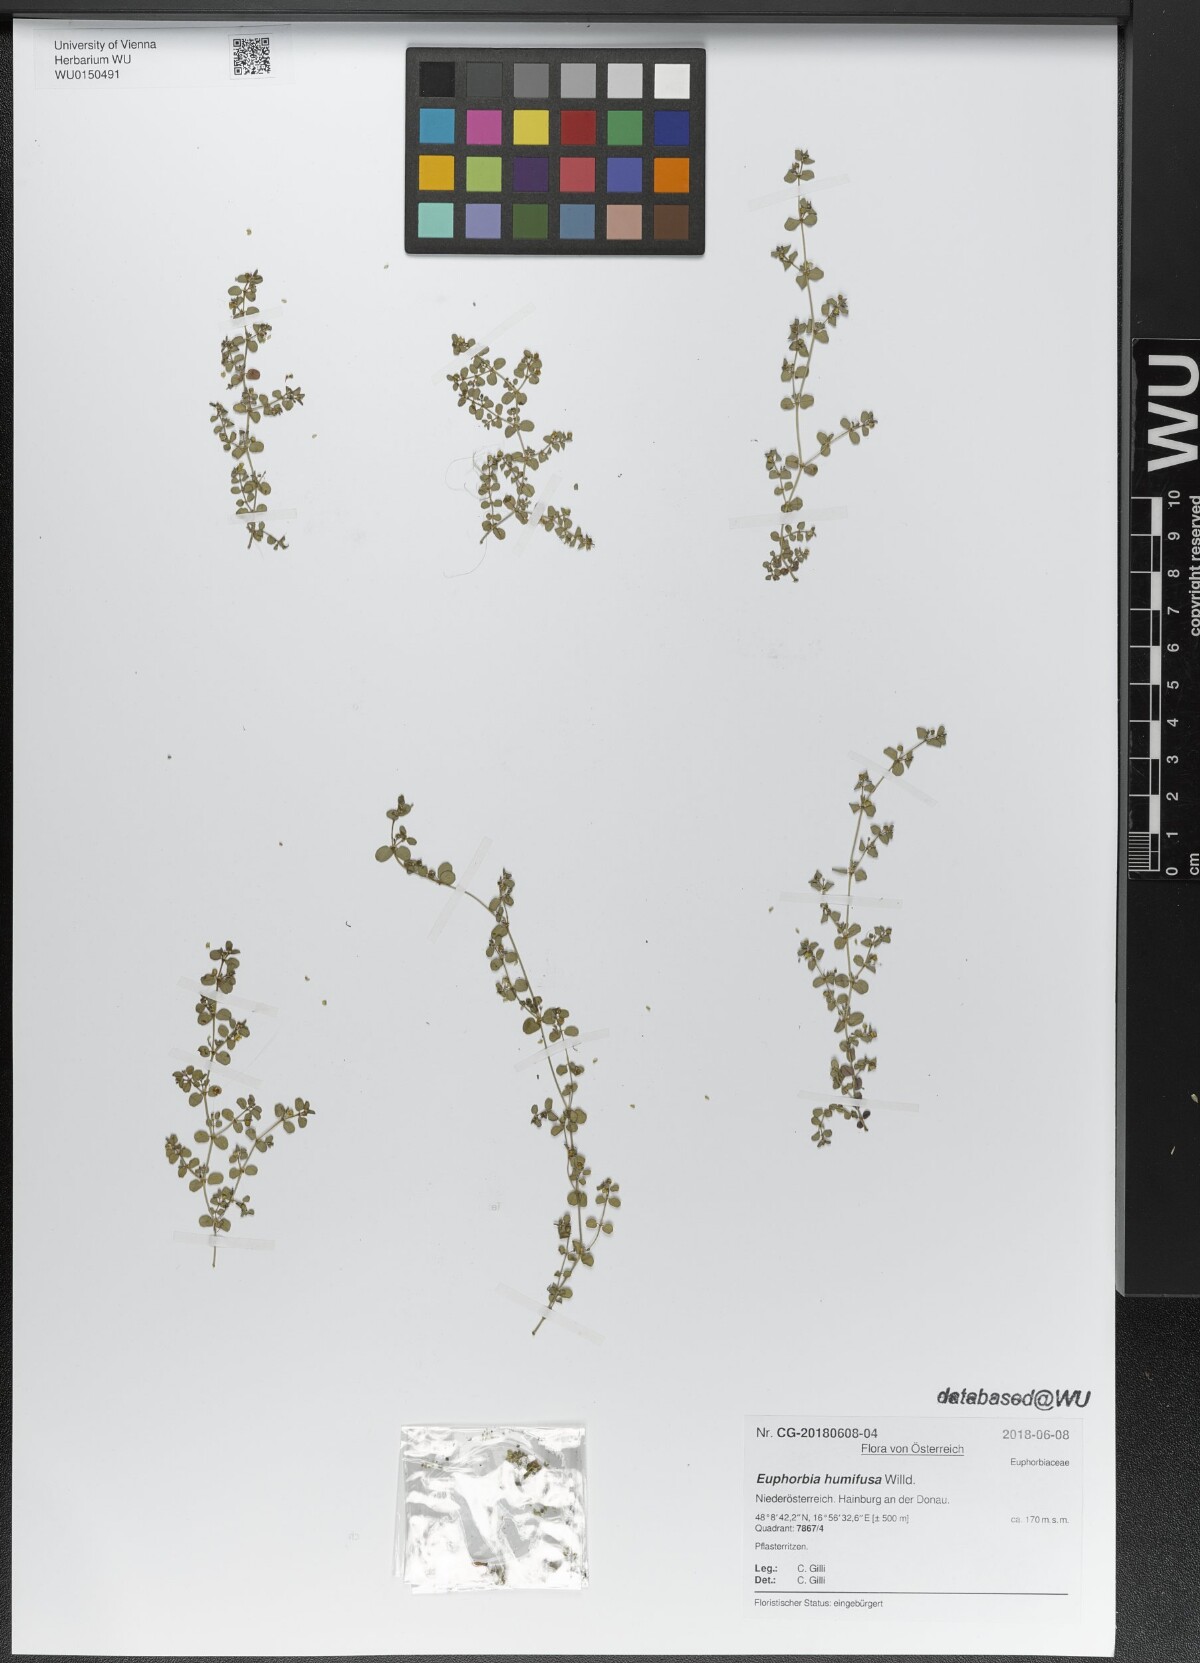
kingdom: Plantae
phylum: Tracheophyta
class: Magnoliopsida
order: Malpighiales
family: Euphorbiaceae
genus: Euphorbia
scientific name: Euphorbia humifusa
